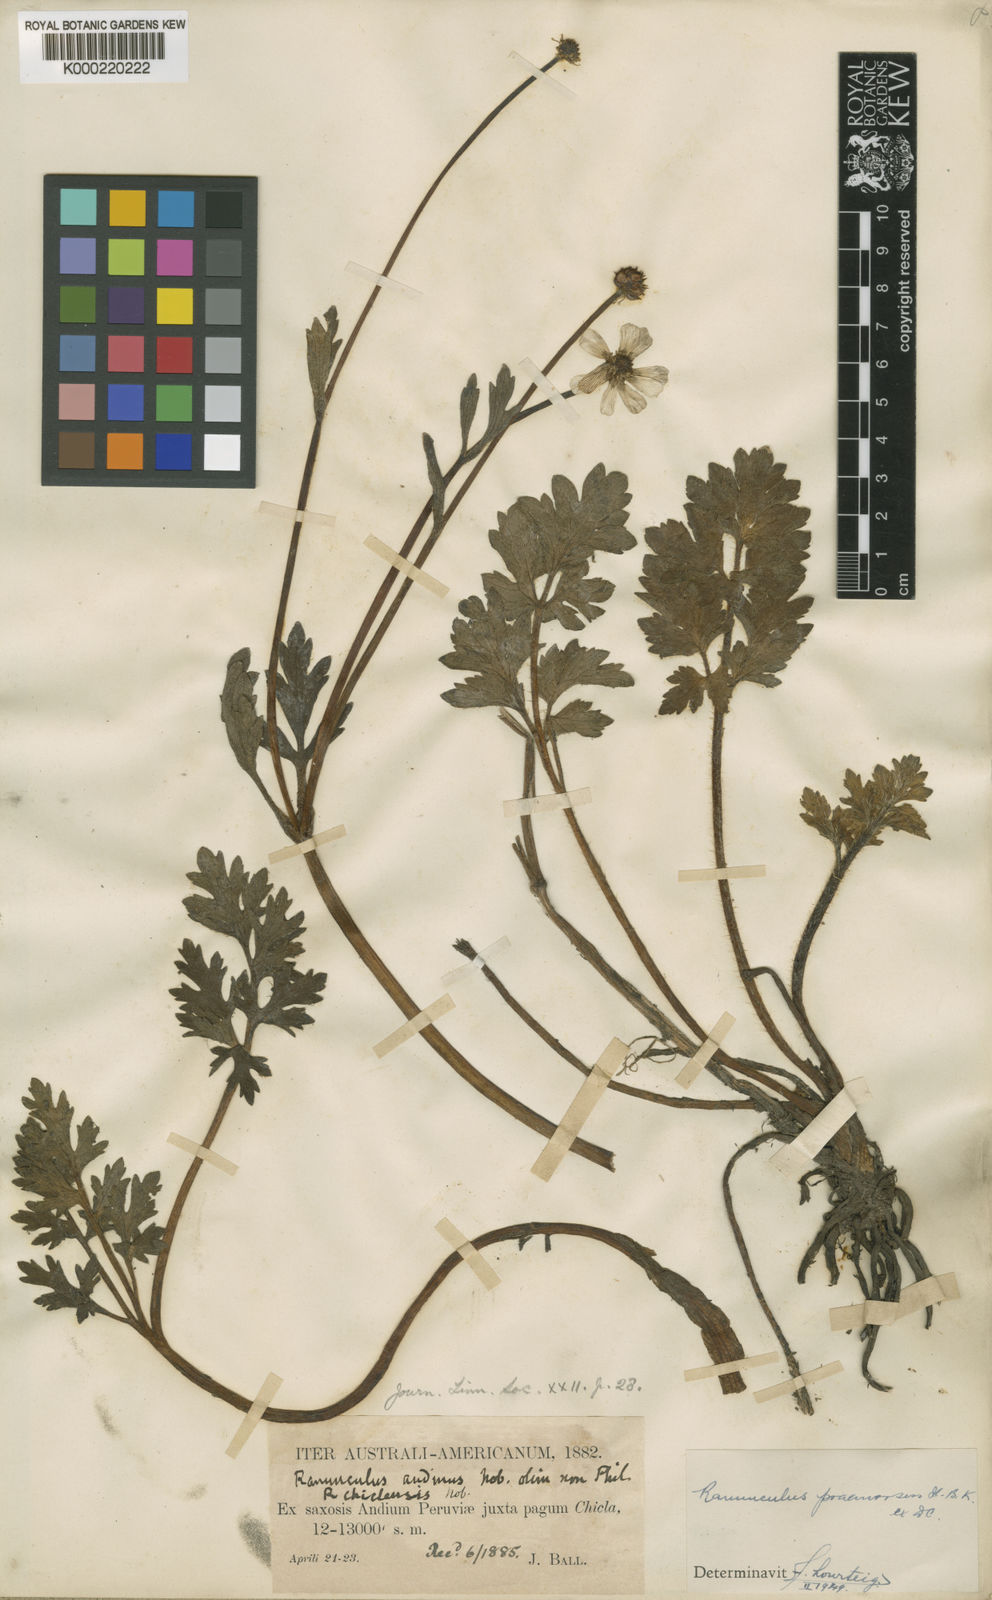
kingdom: Plantae
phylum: Tracheophyta
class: Magnoliopsida
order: Ranunculales
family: Ranunculaceae
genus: Ranunculus
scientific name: Ranunculus praemorsus
